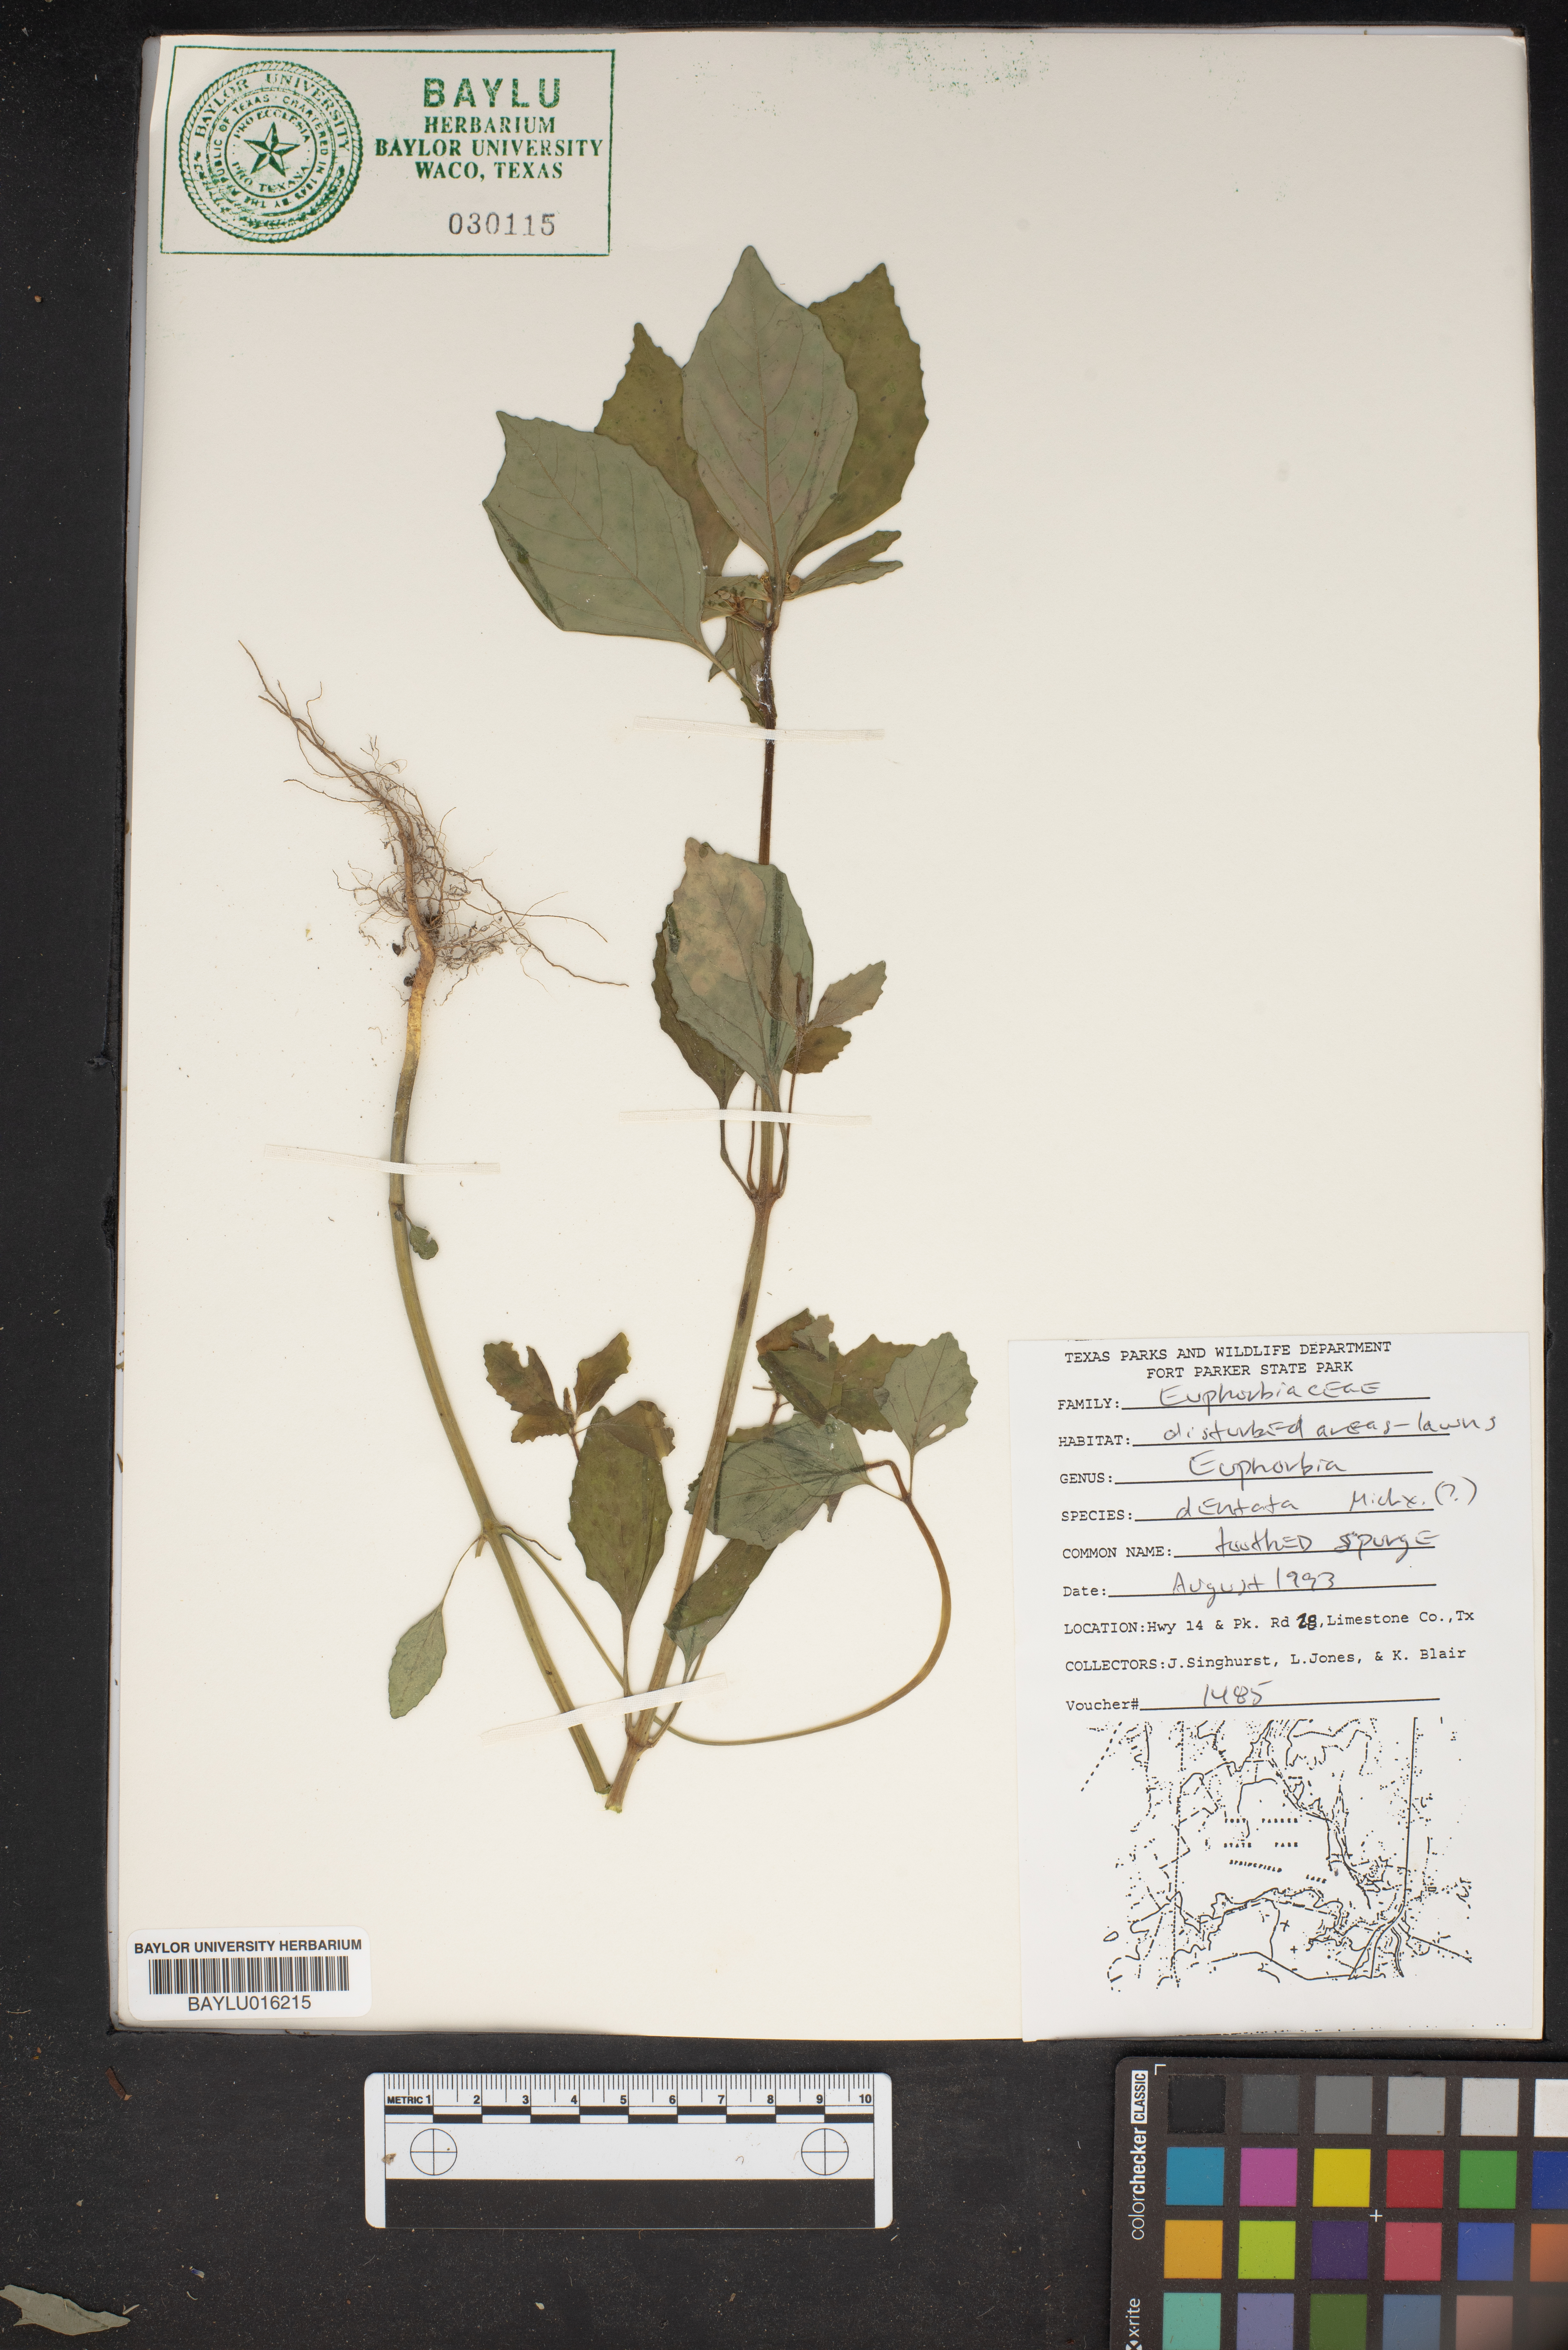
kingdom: Plantae
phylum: Tracheophyta
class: Magnoliopsida
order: Malpighiales
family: Euphorbiaceae
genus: Euphorbia
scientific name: Euphorbia dentata
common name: Dentate spurge
